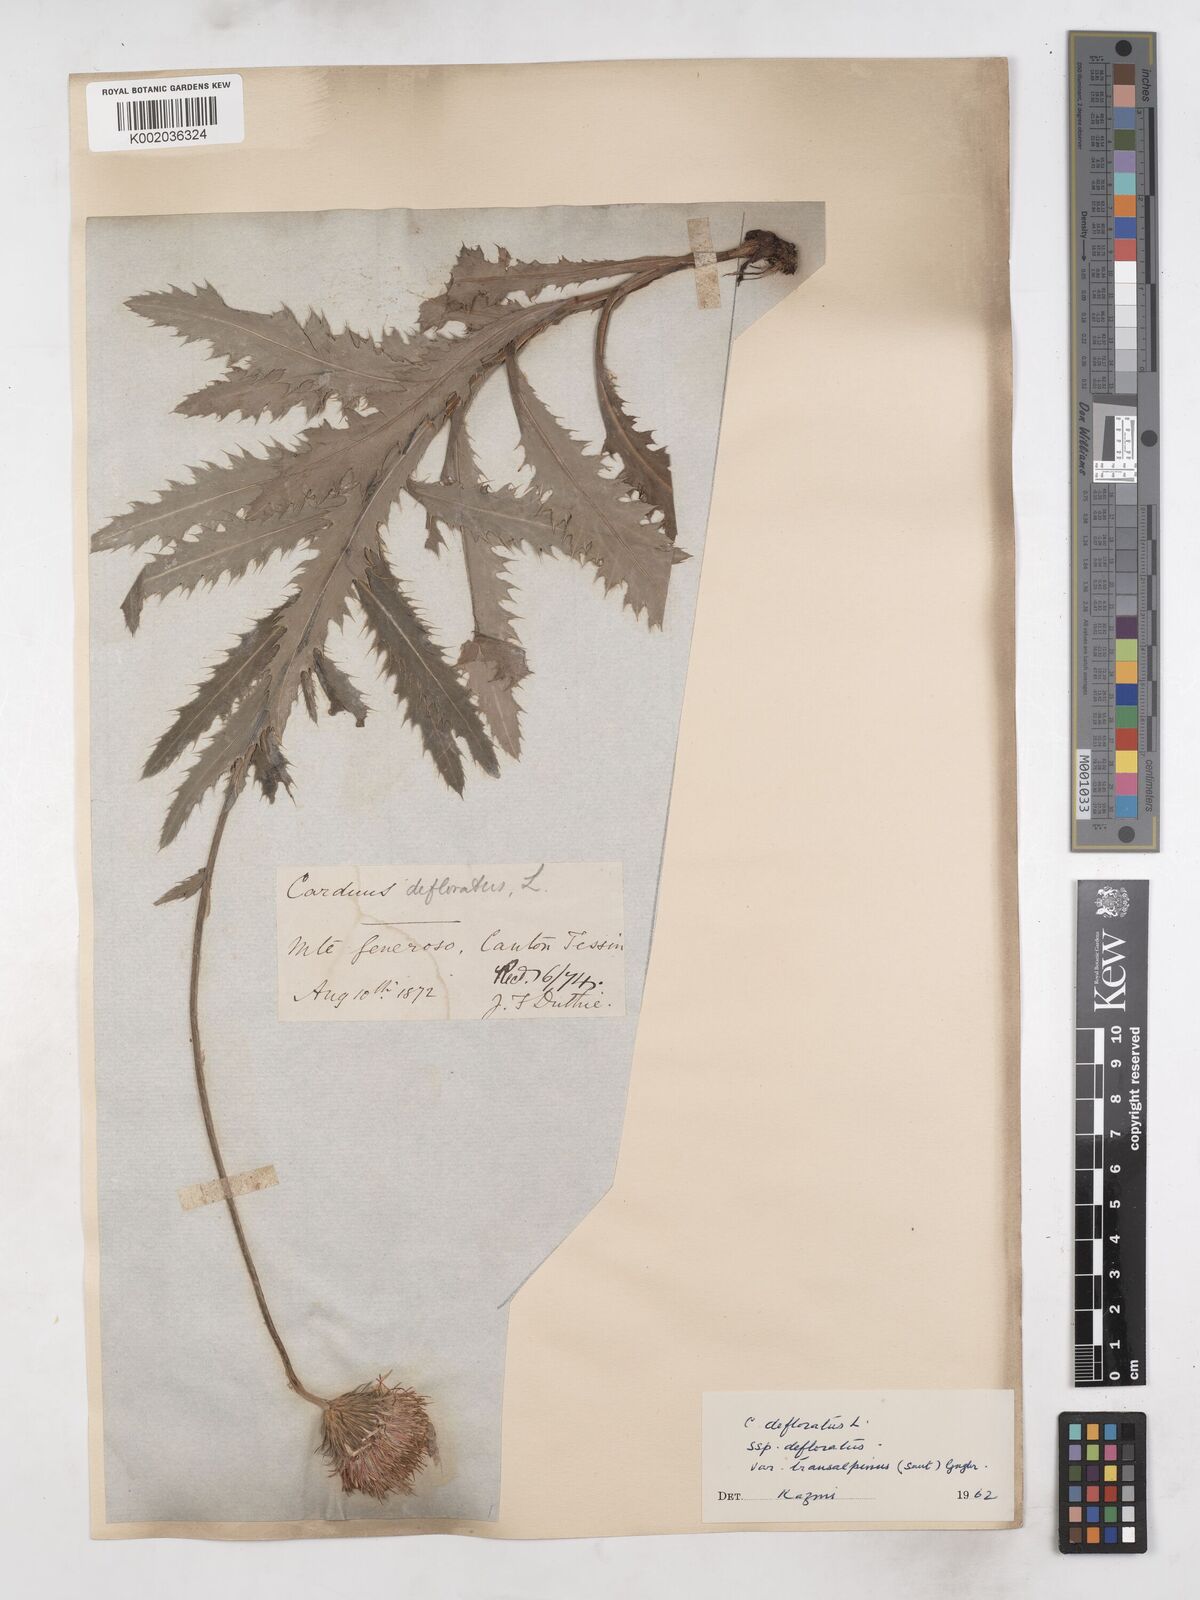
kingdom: Plantae
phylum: Tracheophyta
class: Magnoliopsida
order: Asterales
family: Asteraceae
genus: Carduus
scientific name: Carduus defloratus
